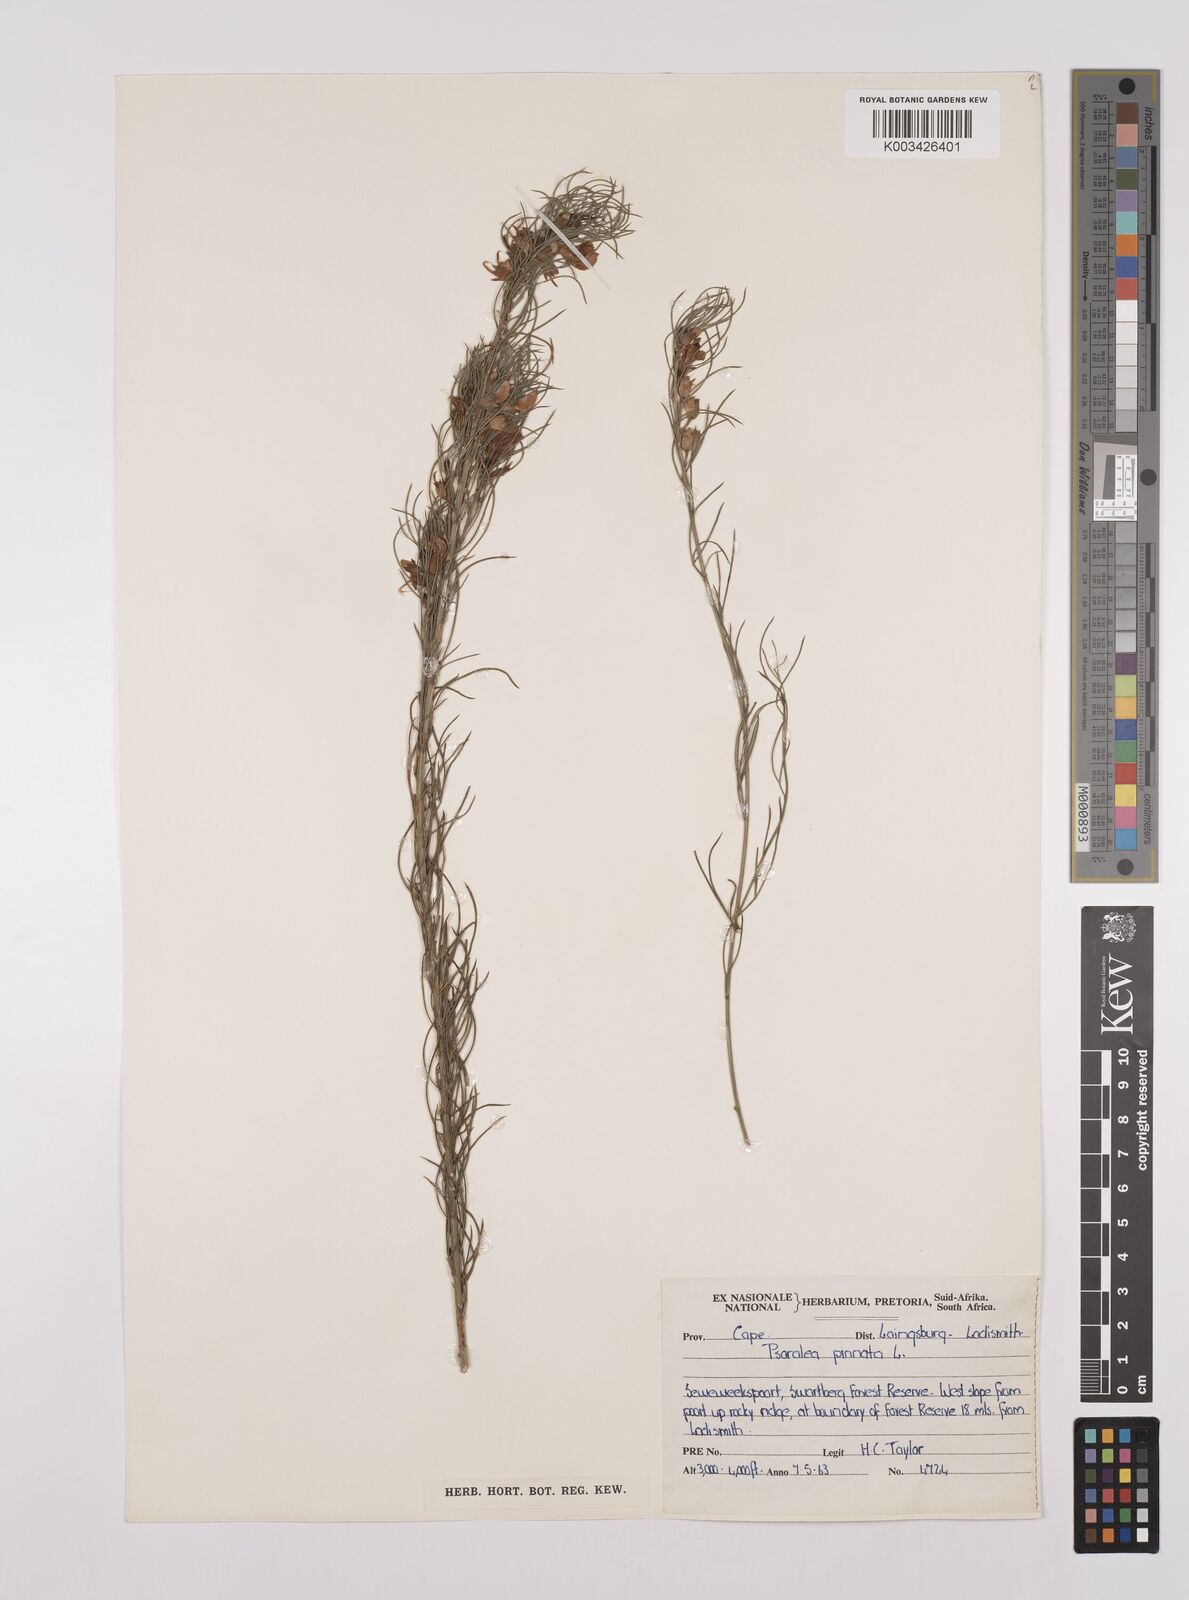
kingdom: Plantae
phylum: Tracheophyta
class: Magnoliopsida
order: Fabales
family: Fabaceae
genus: Psoralea
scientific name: Psoralea sordida
